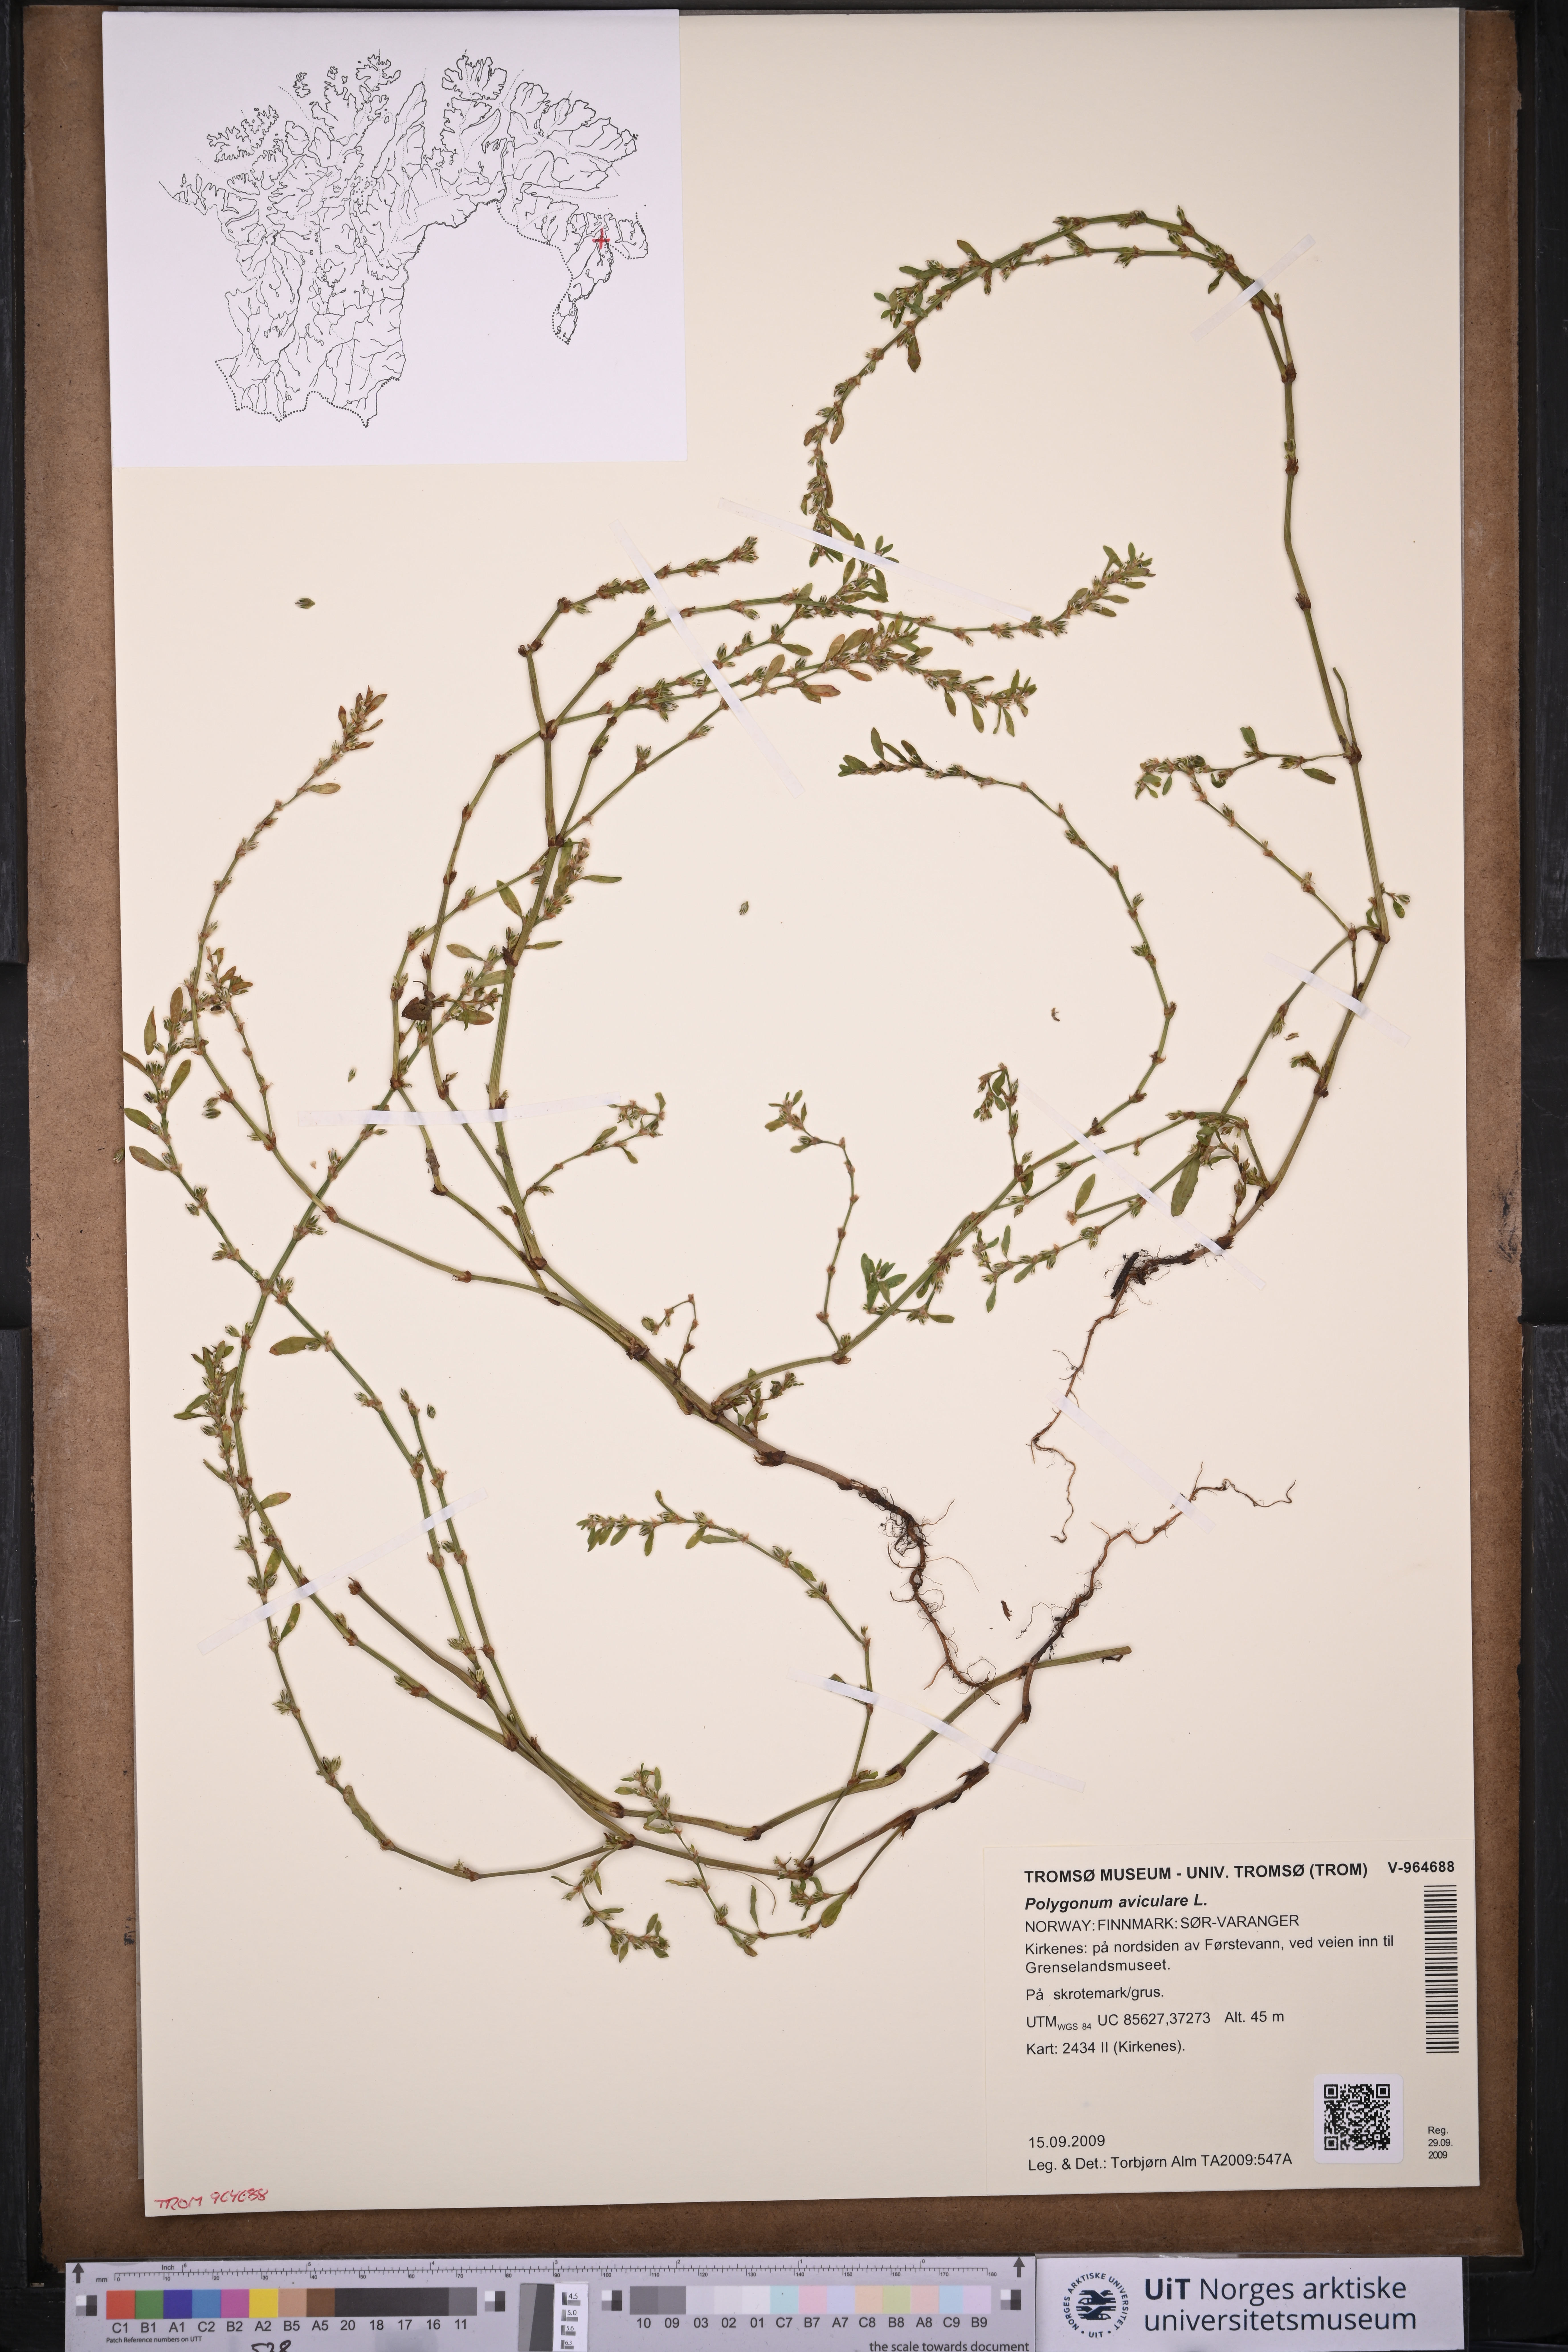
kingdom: Plantae
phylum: Tracheophyta
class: Magnoliopsida
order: Caryophyllales
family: Polygonaceae
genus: Polygonum
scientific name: Polygonum aviculare
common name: Prostrate knotweed
